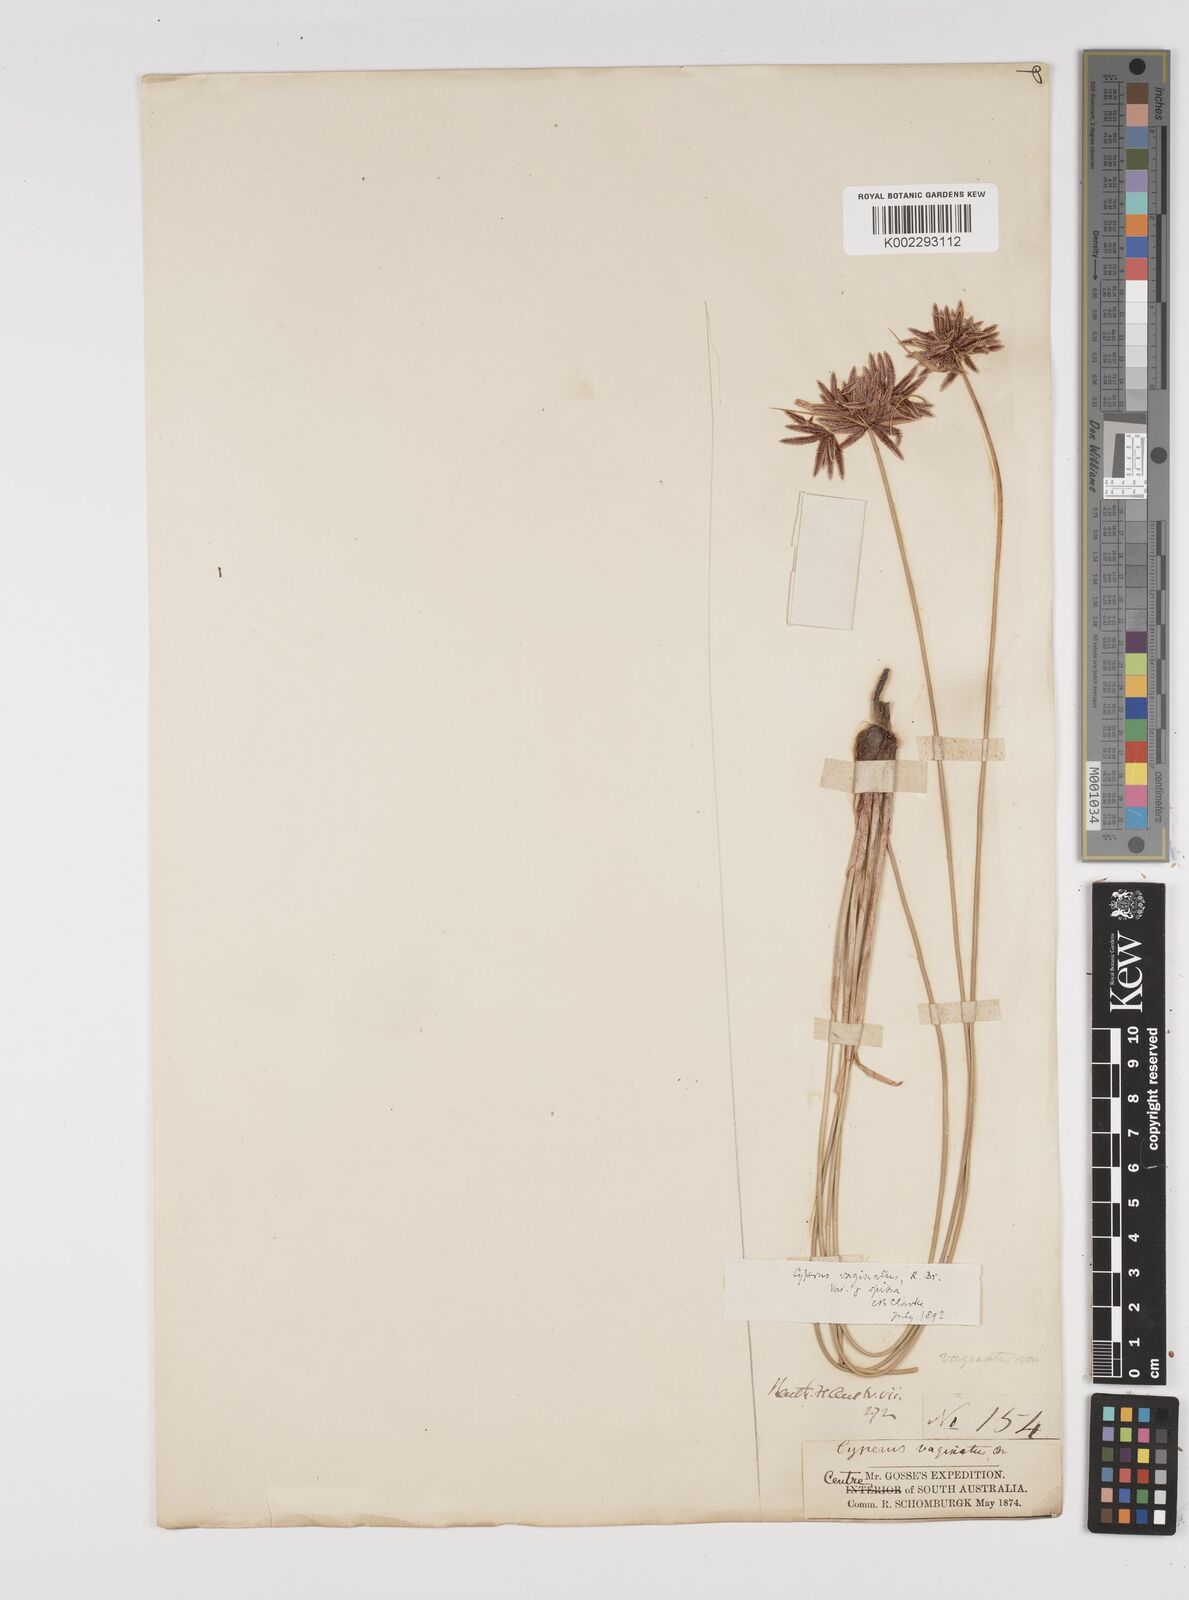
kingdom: Plantae
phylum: Tracheophyta
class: Liliopsida
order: Poales
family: Cyperaceae
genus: Cyperus
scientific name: Cyperus vaginatus
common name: Stiff-leaved flat-sedge
